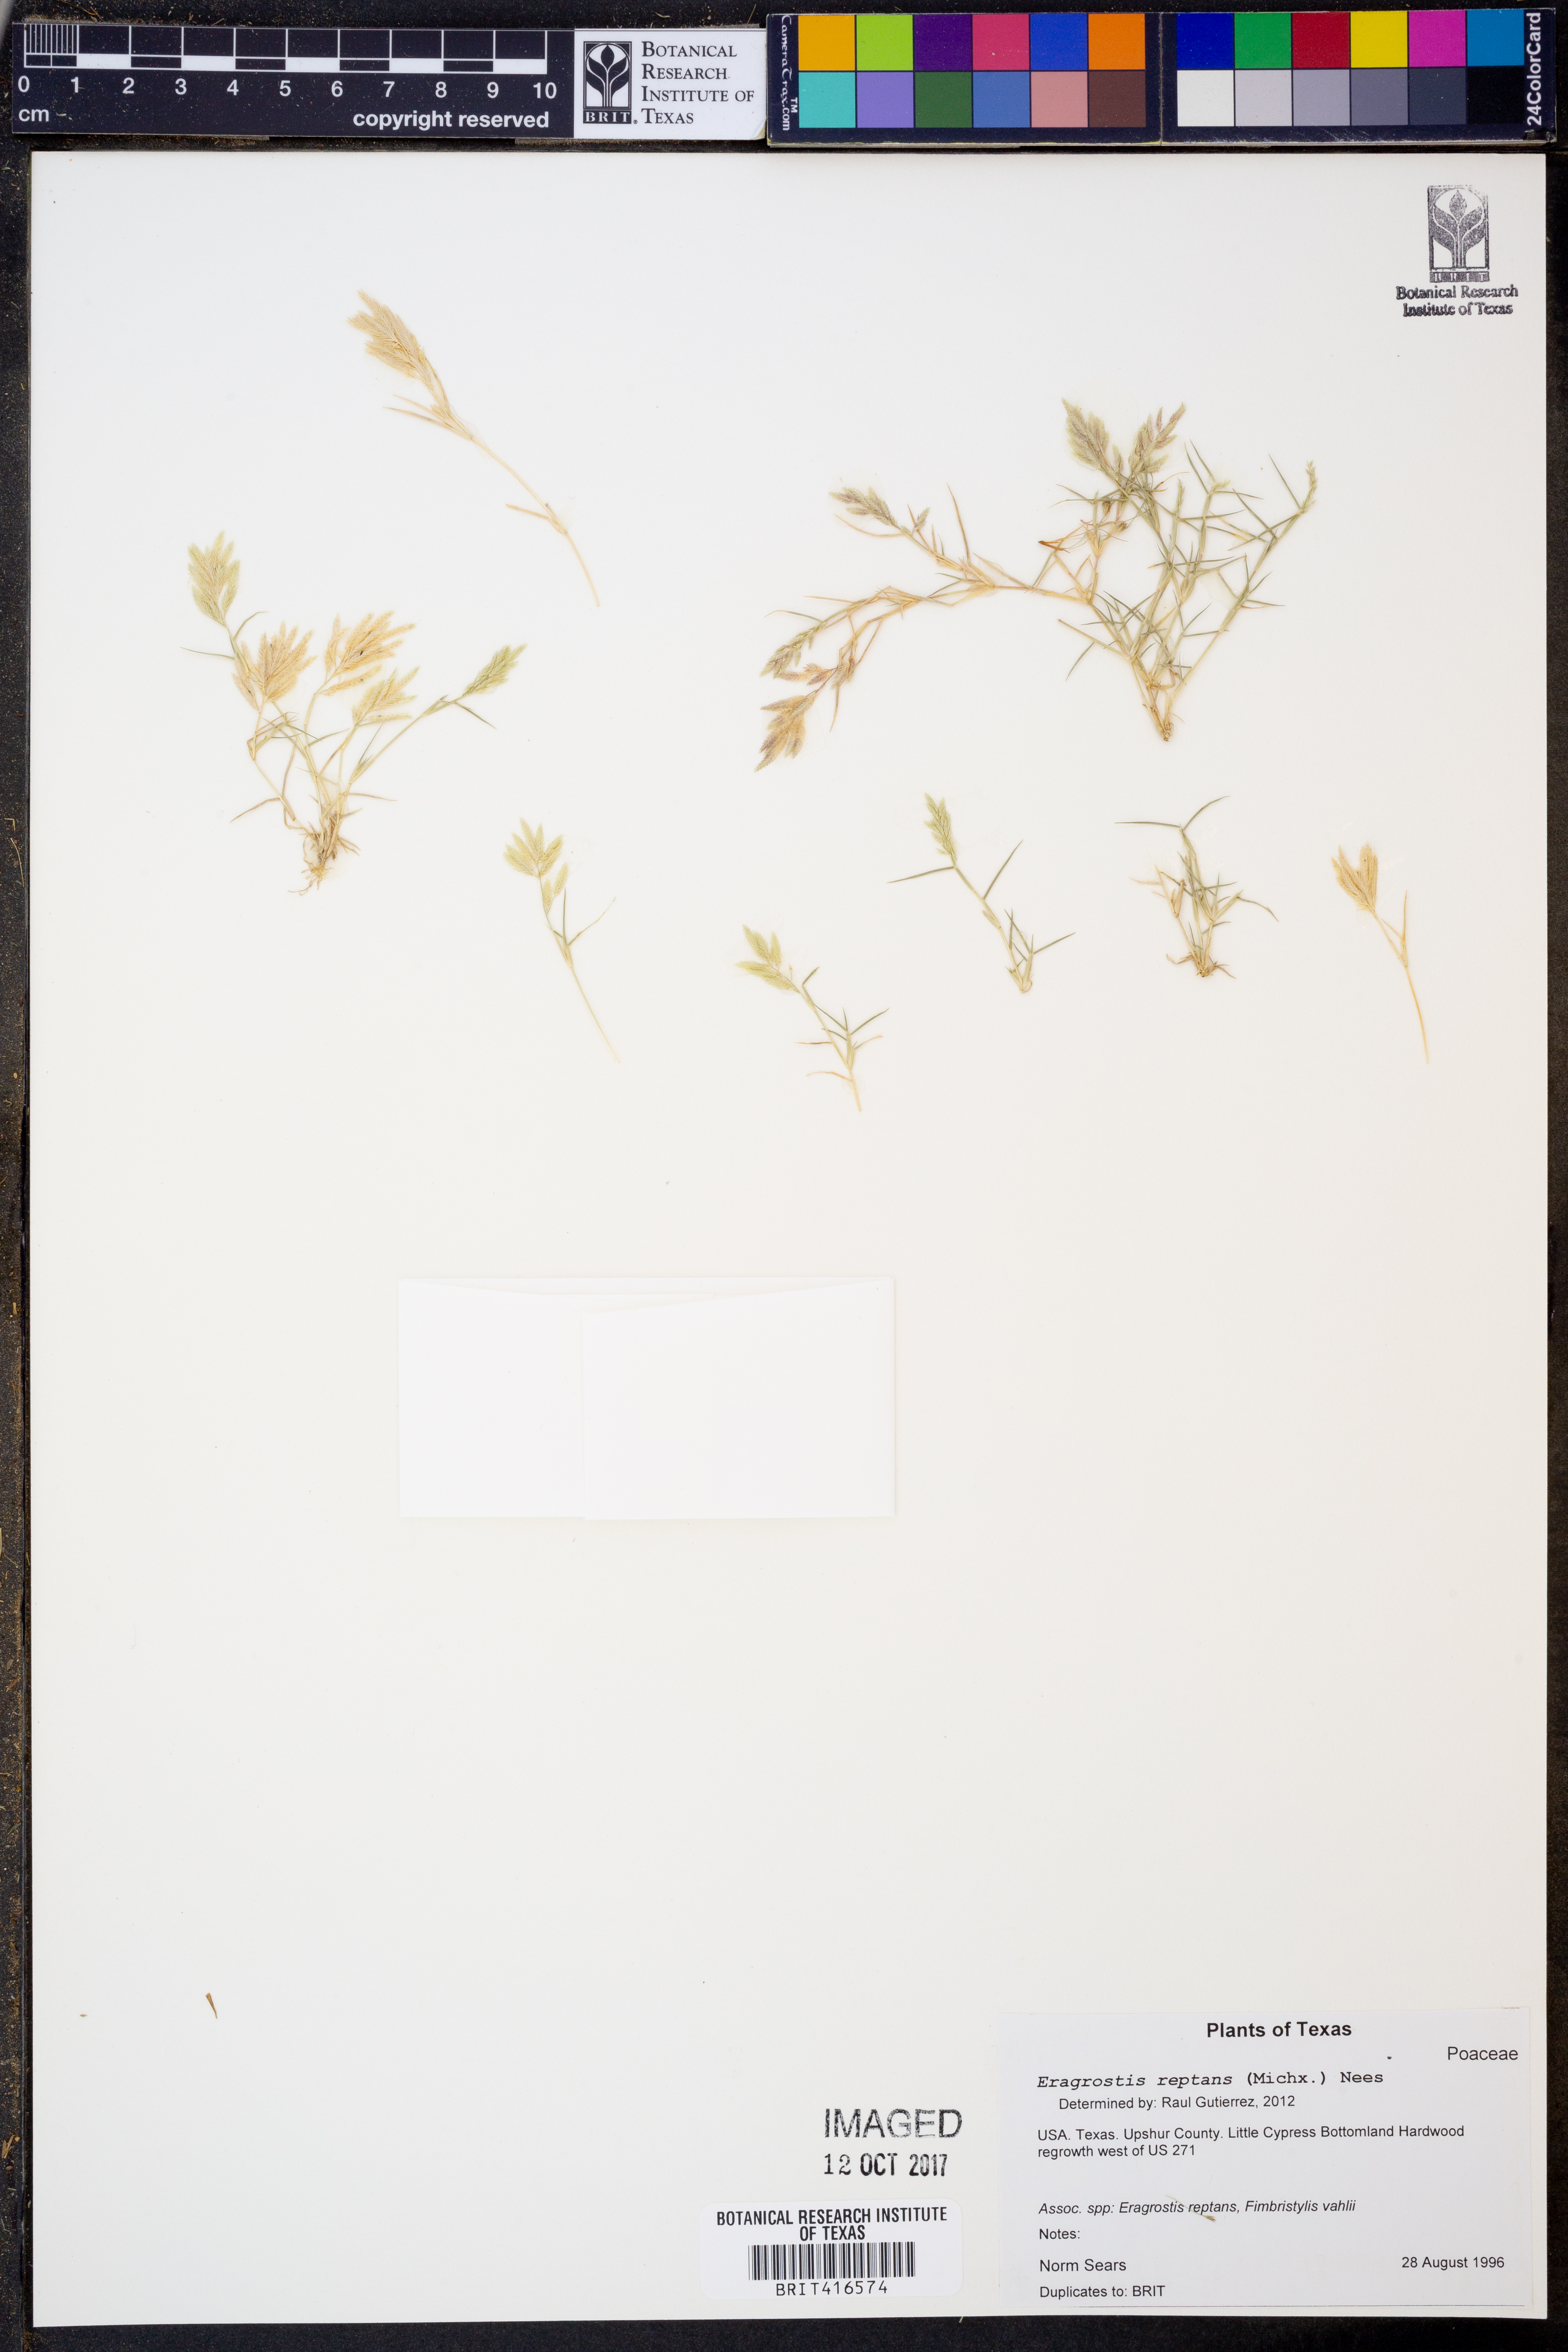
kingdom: Plantae
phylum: Tracheophyta
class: Liliopsida
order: Poales
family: Poaceae
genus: Eragrostis
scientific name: Eragrostis reptans
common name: Creeping love grass
